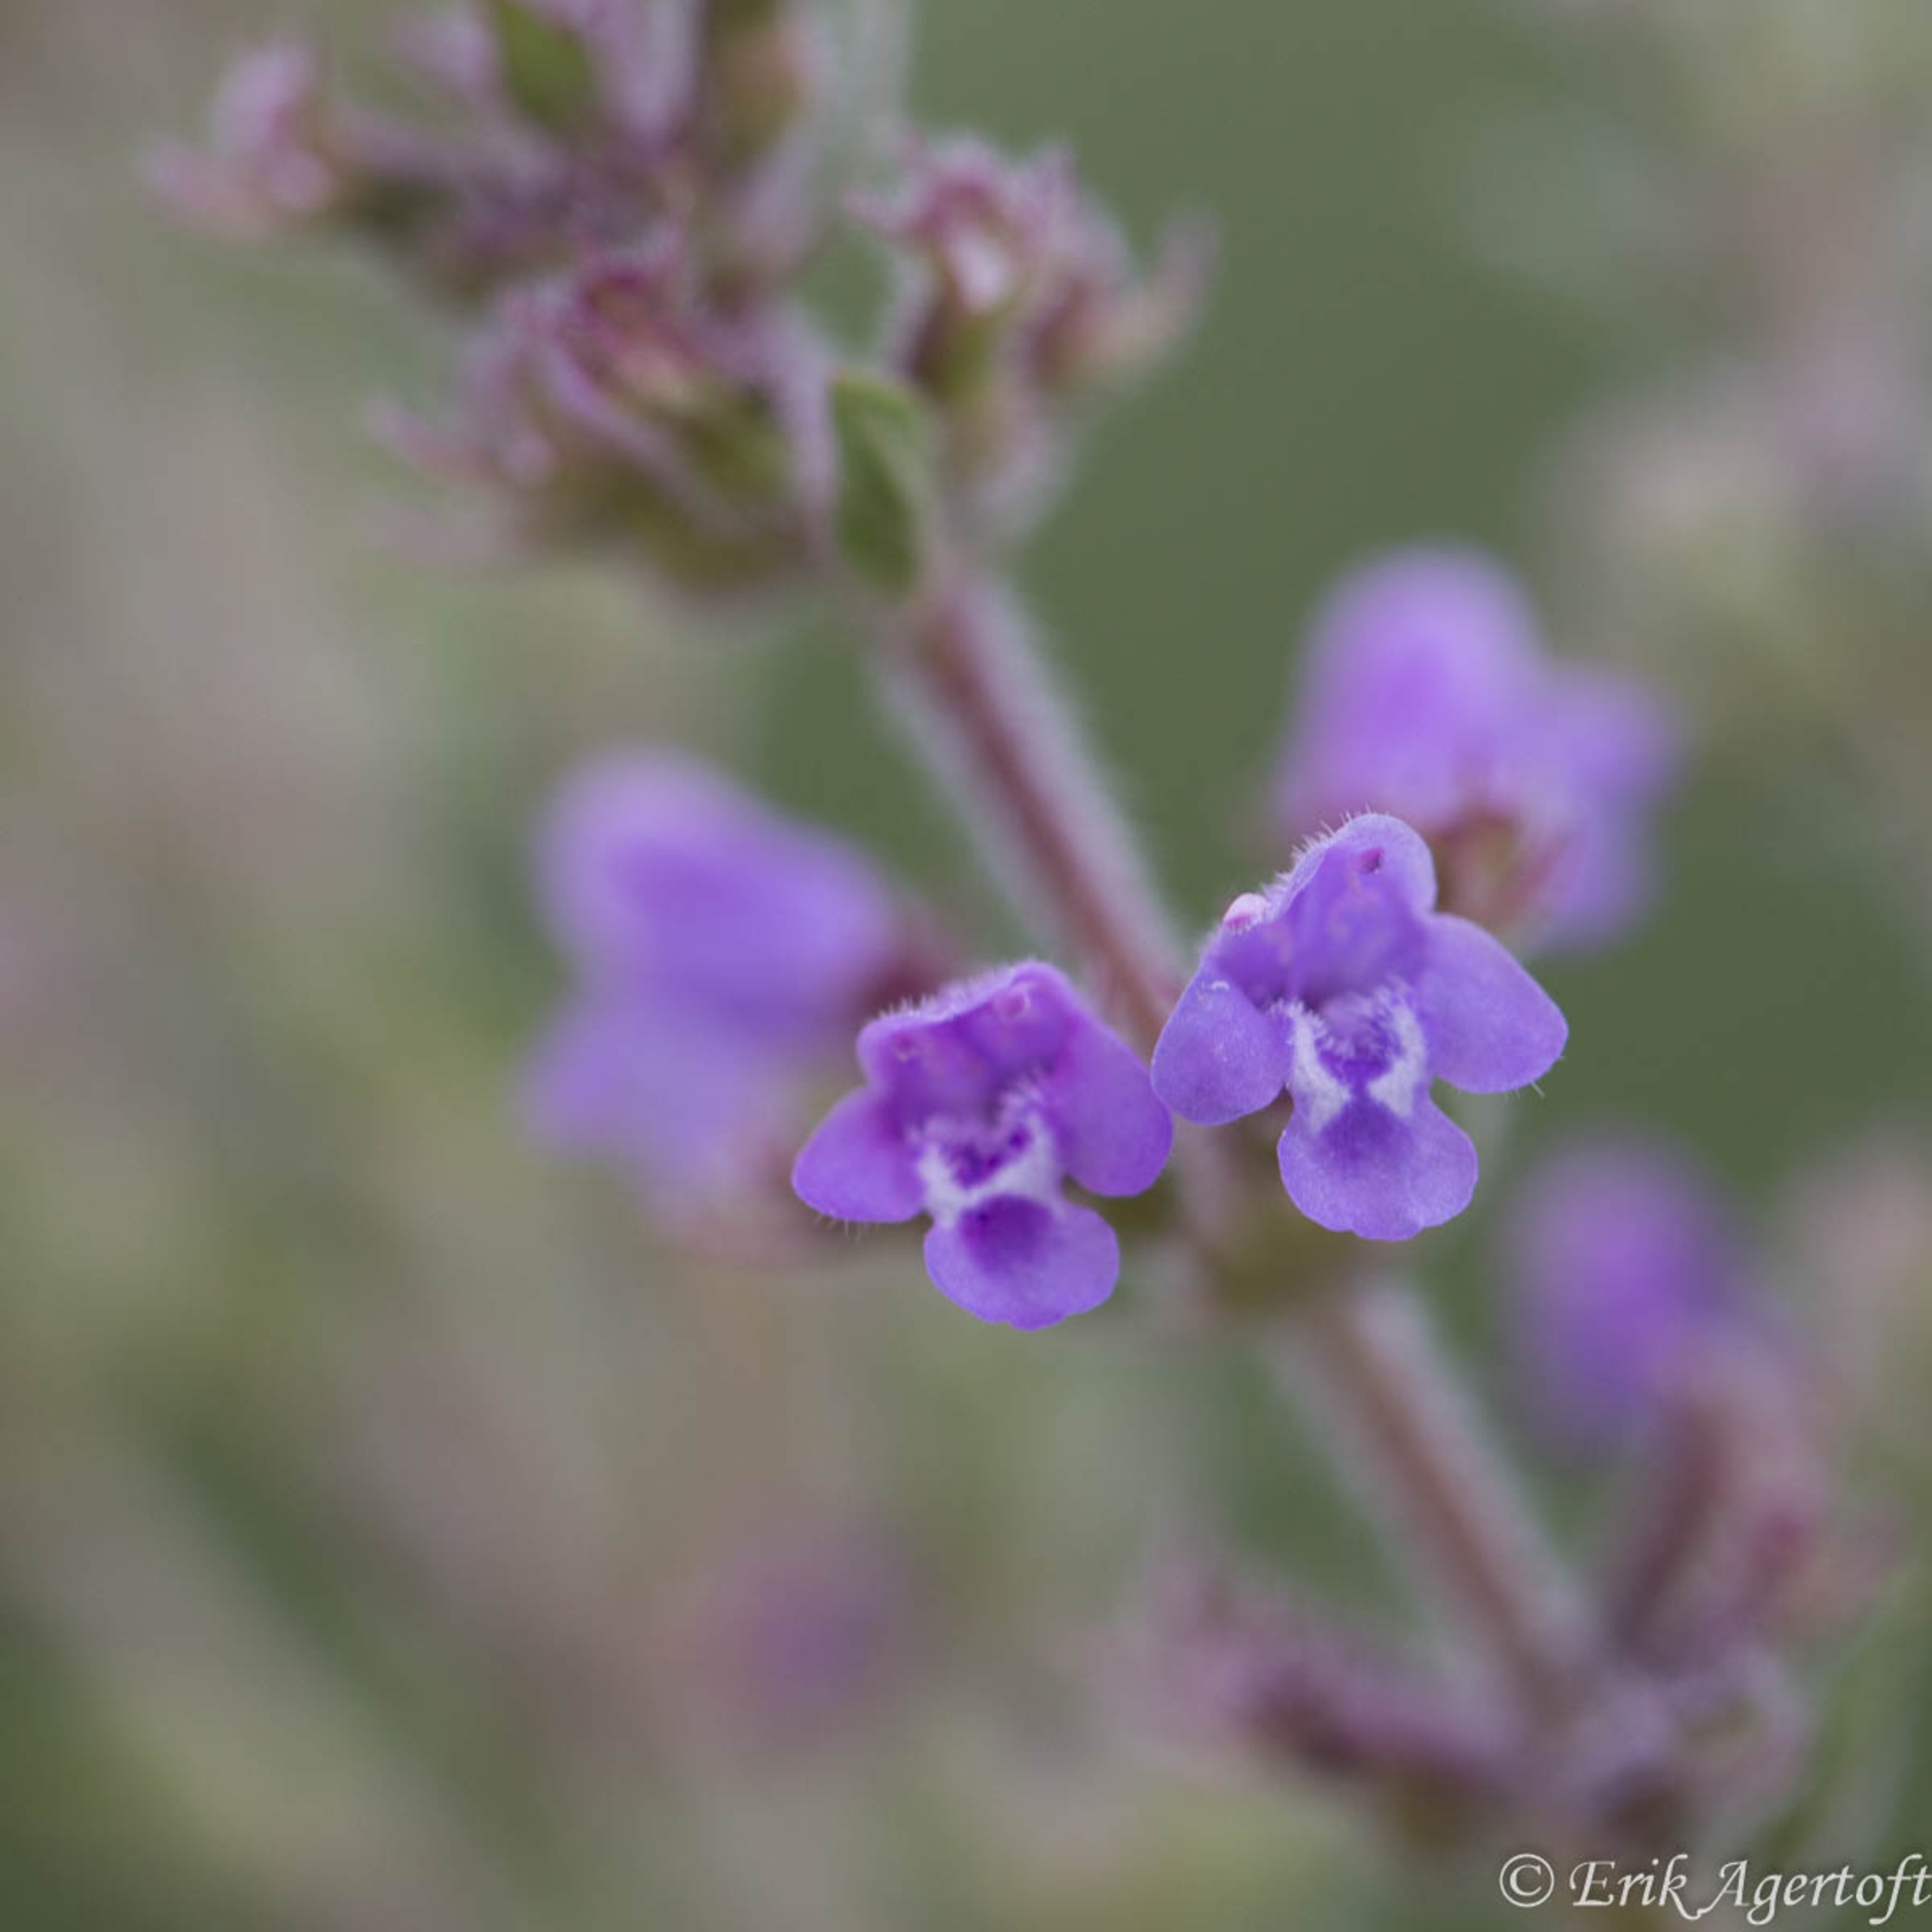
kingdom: Plantae
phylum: Tracheophyta
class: Magnoliopsida
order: Lamiales
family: Lamiaceae
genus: Clinopodium
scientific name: Clinopodium acinos
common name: Voldtimian
